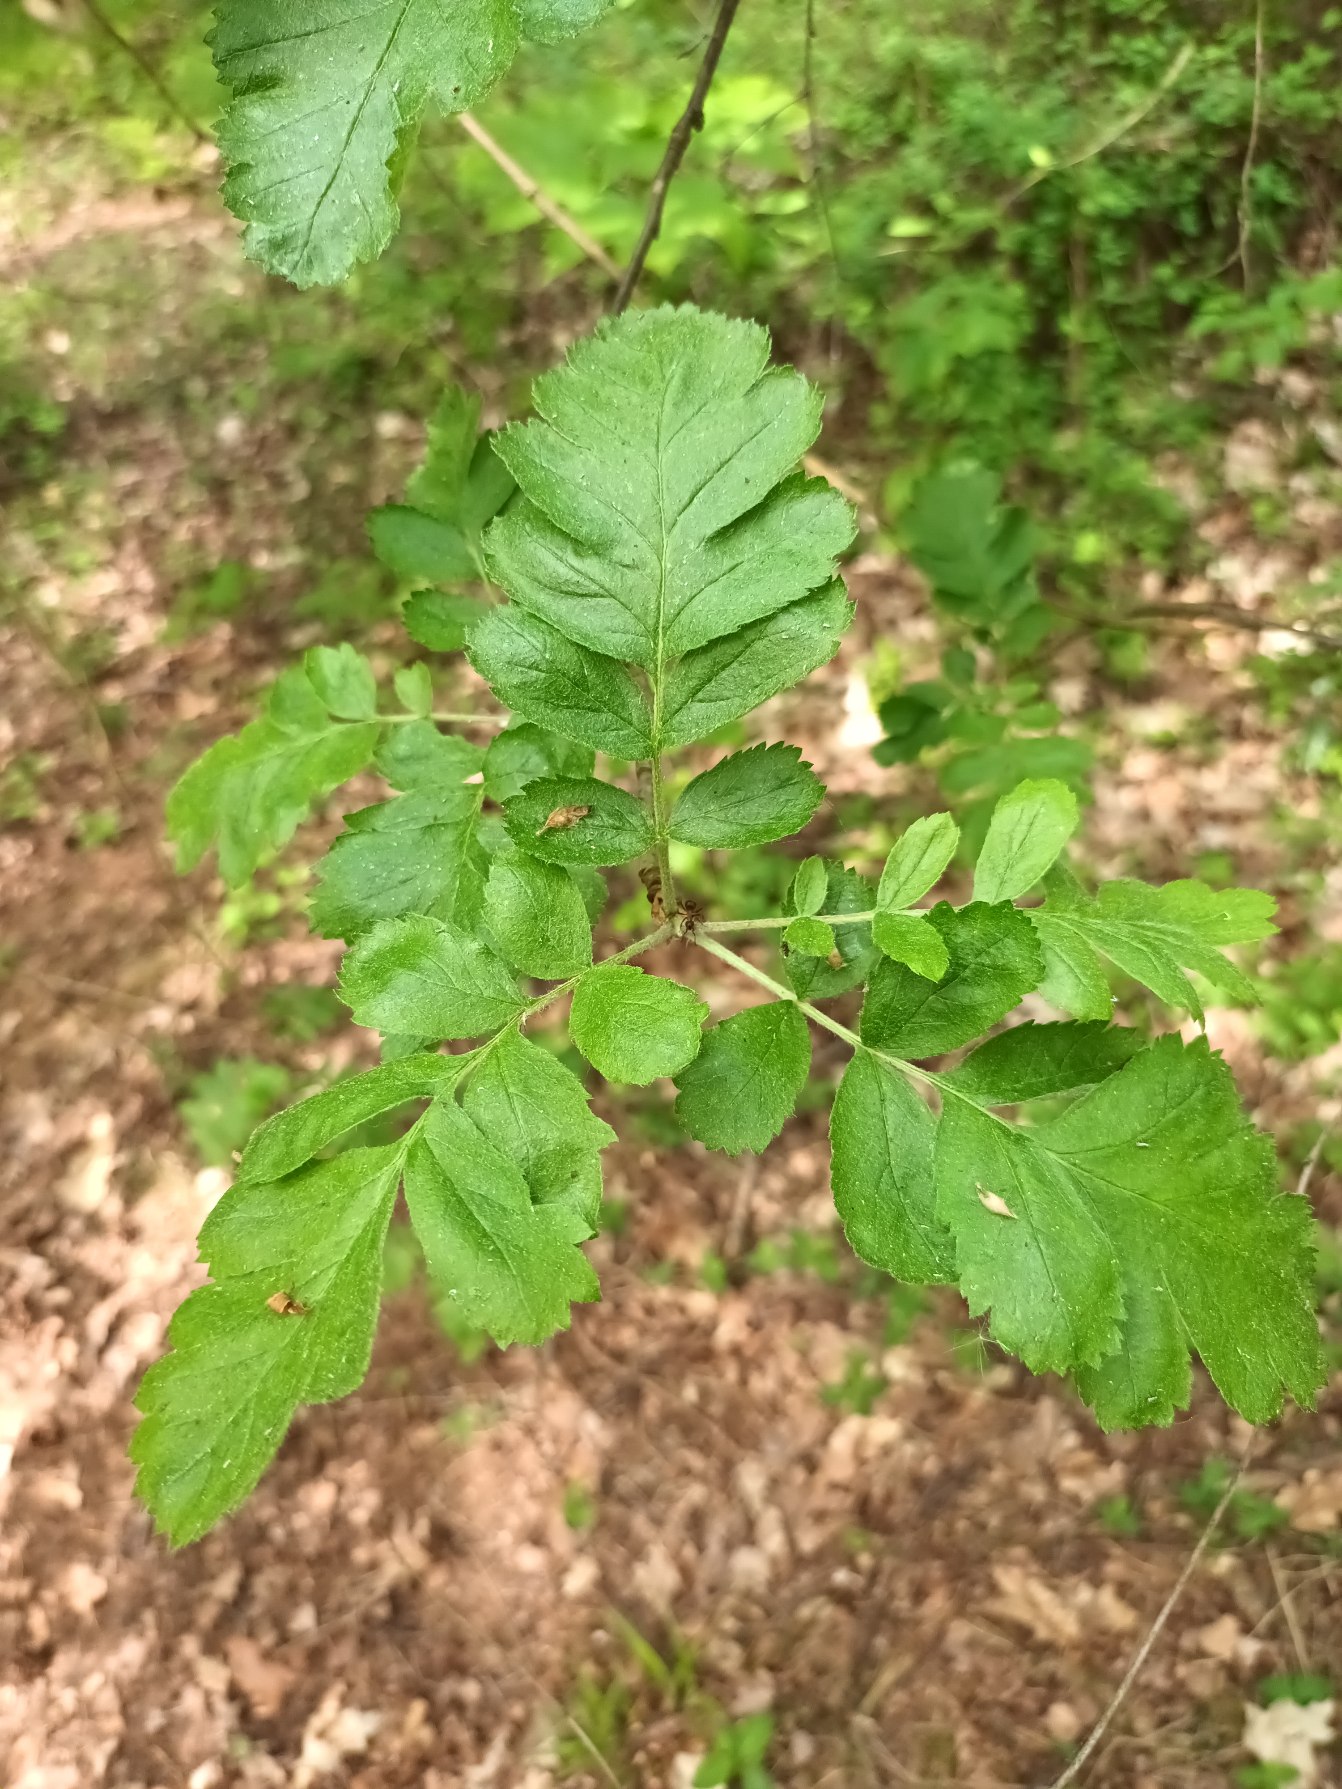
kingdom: Plantae
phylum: Tracheophyta
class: Magnoliopsida
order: Rosales
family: Rosaceae
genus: Hedlundia
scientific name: Hedlundia hybrida
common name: Finsk røn
